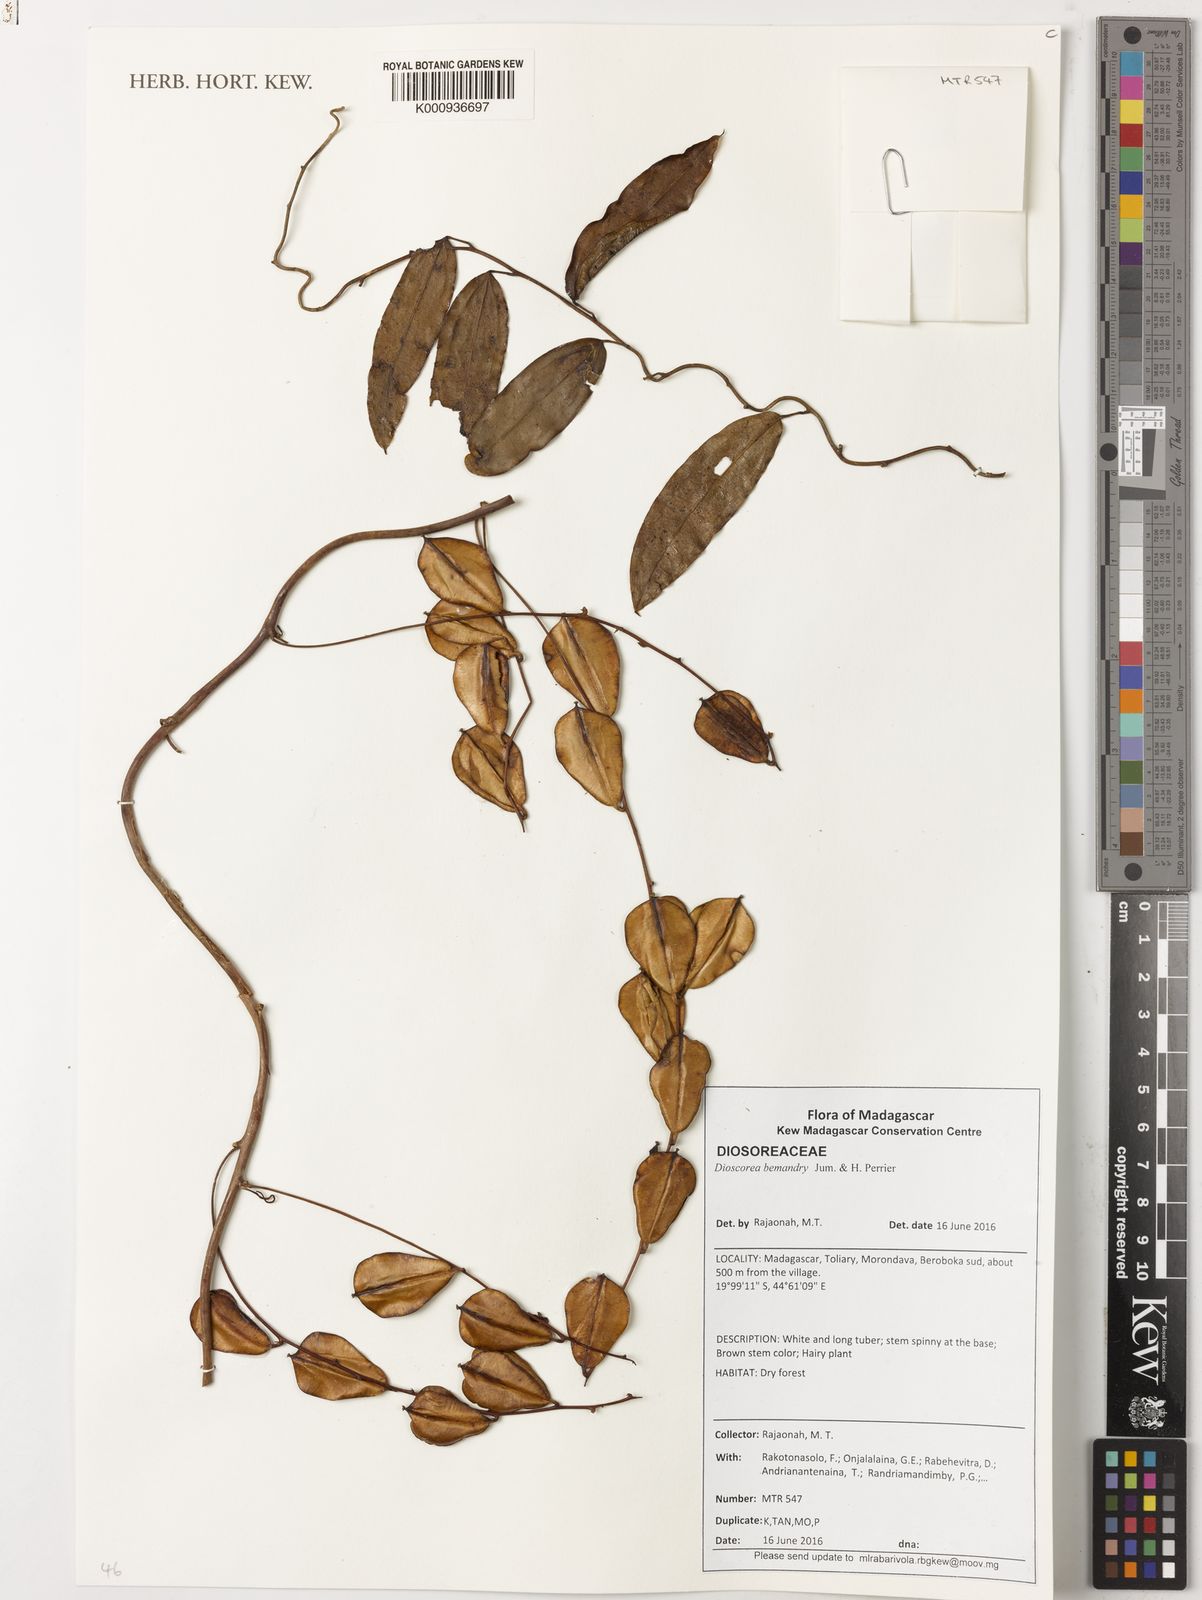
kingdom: Plantae
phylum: Tracheophyta
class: Liliopsida
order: Dioscoreales
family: Dioscoreaceae
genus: Dioscorea
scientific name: Dioscorea bemandry
